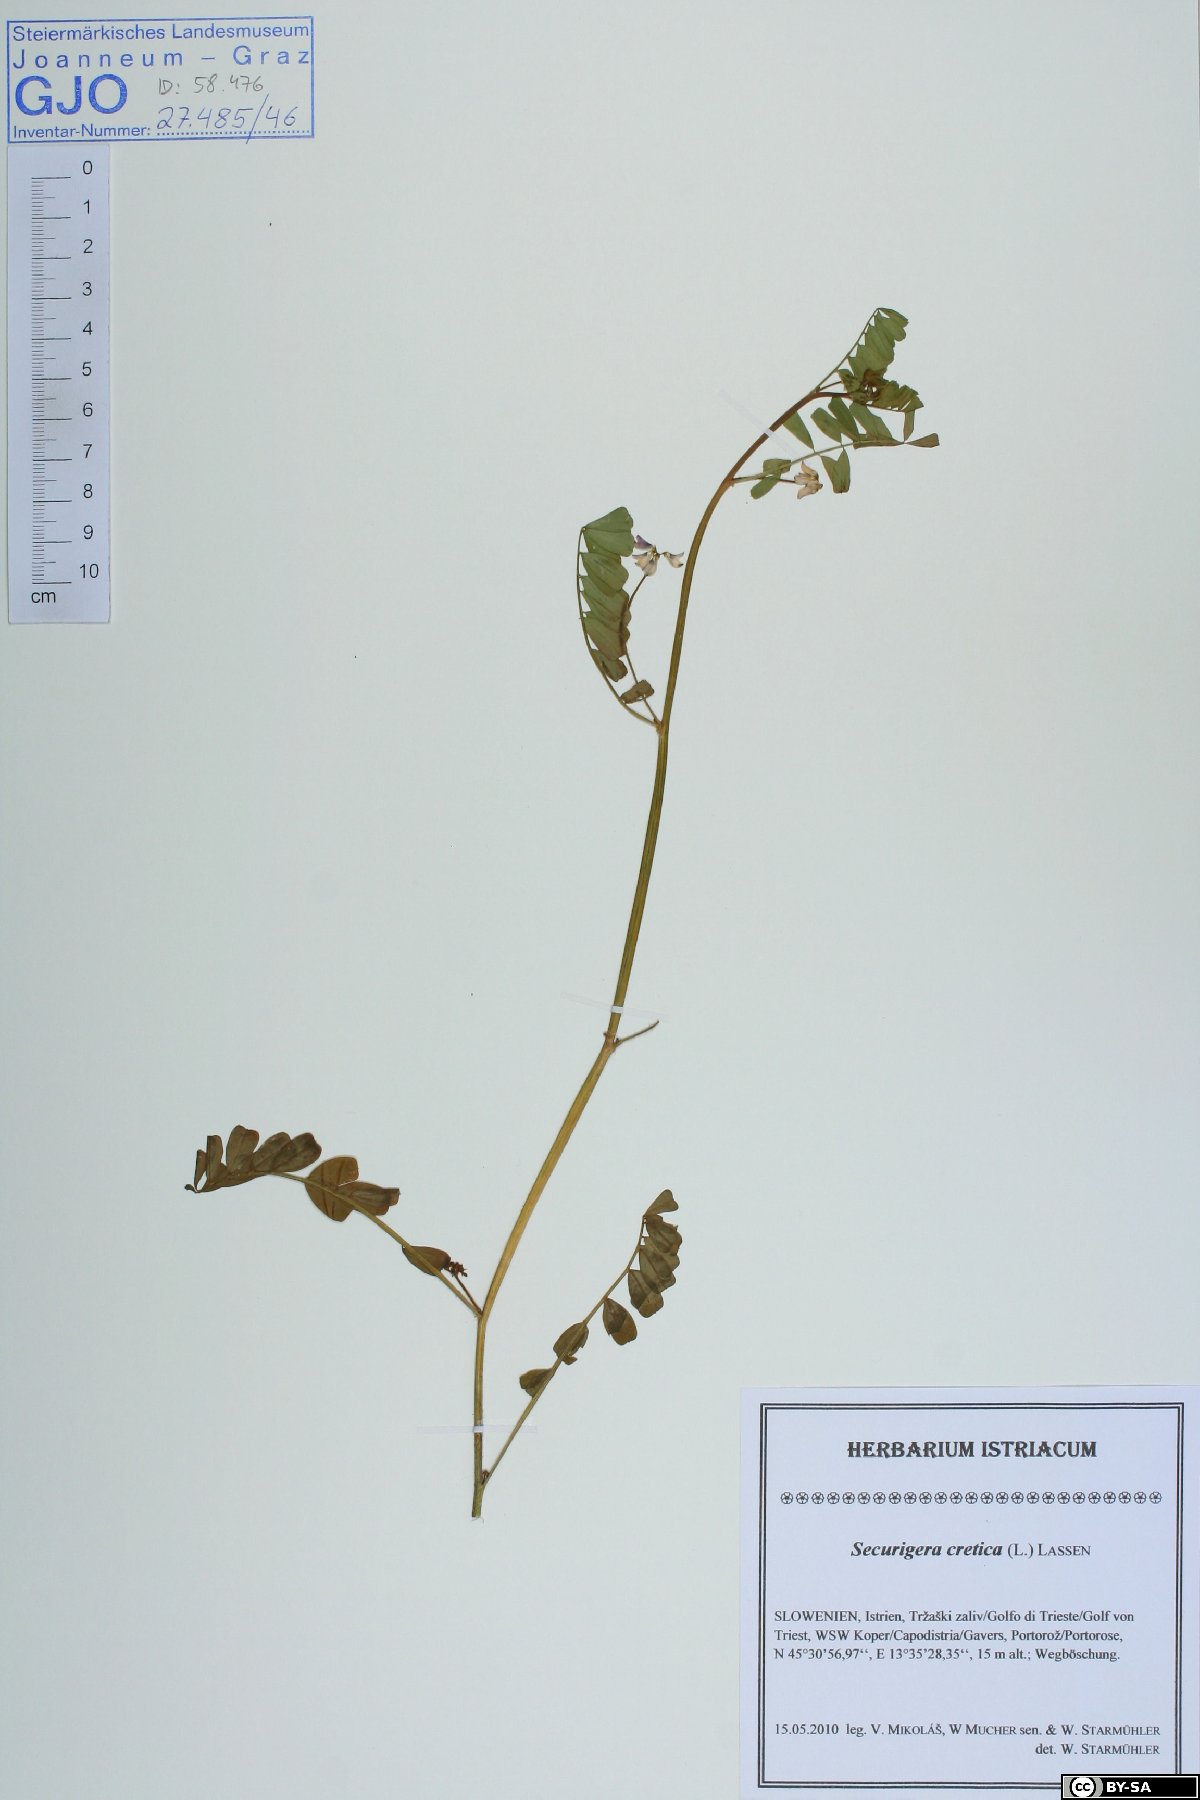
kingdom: Plantae
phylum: Tracheophyta
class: Magnoliopsida
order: Fabales
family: Fabaceae
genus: Coronilla
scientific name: Coronilla cretica
